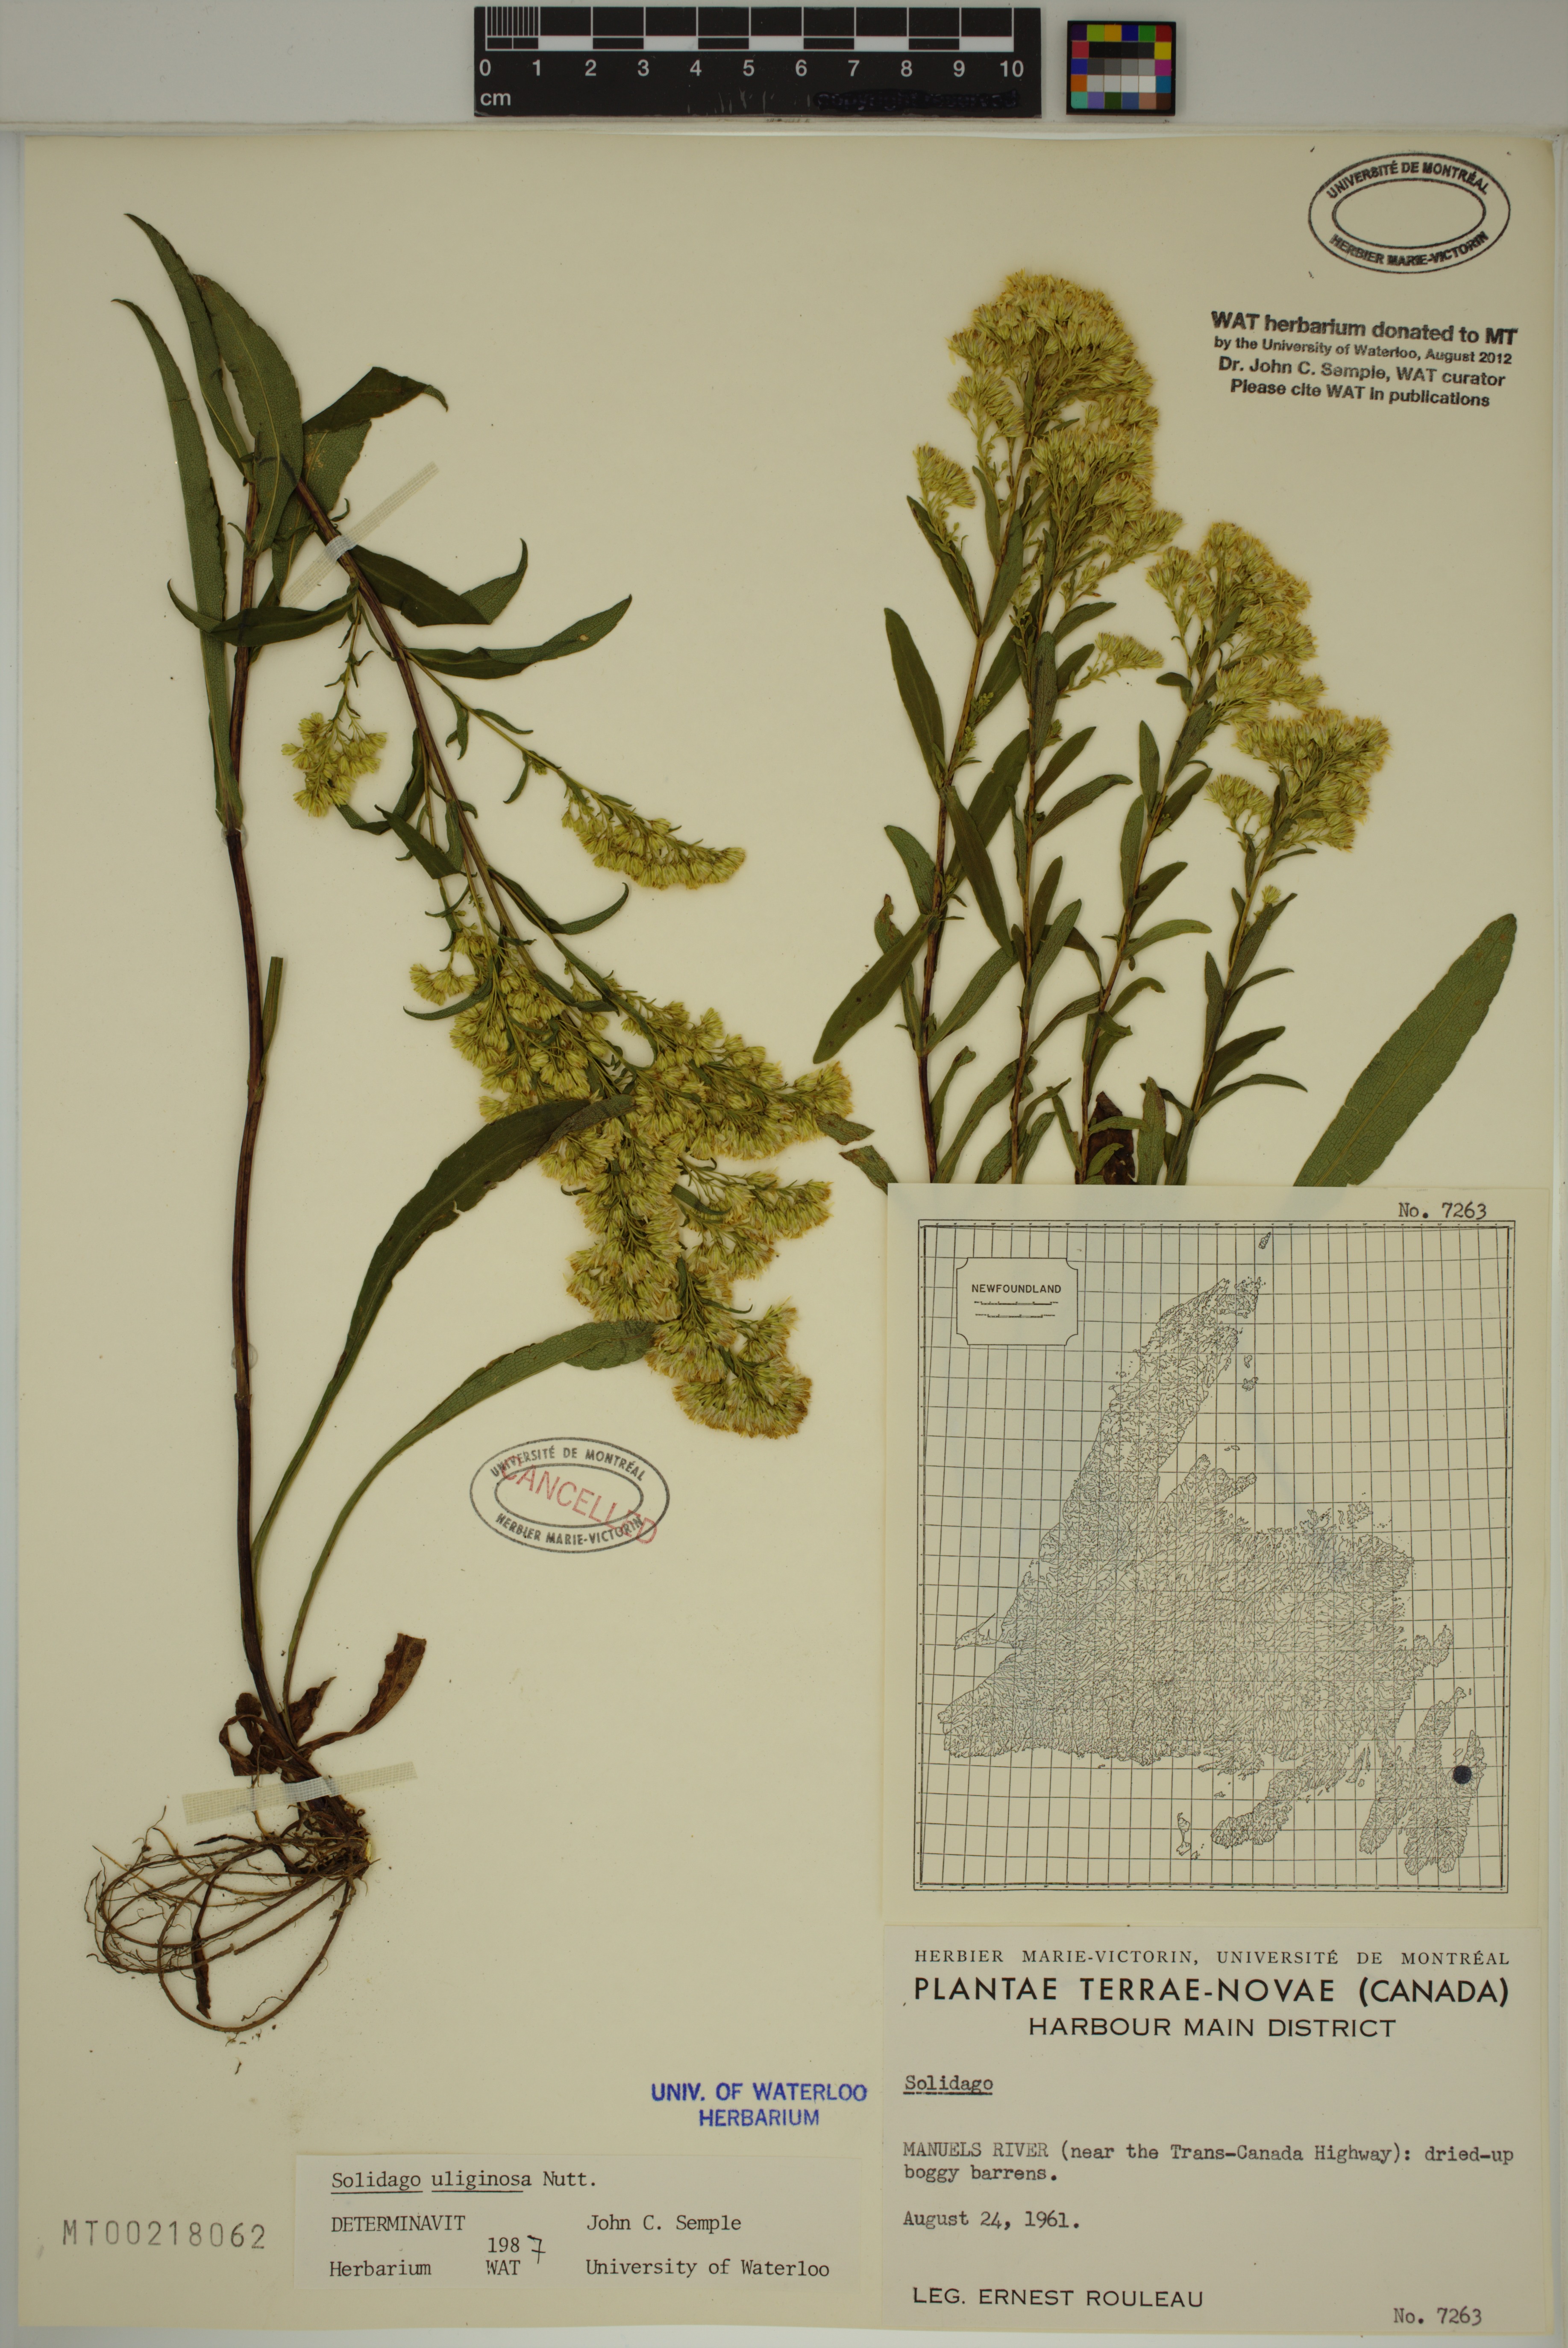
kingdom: Plantae
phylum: Tracheophyta
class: Magnoliopsida
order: Asterales
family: Asteraceae
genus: Solidago
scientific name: Solidago uliginosa
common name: Bog goldenrod
